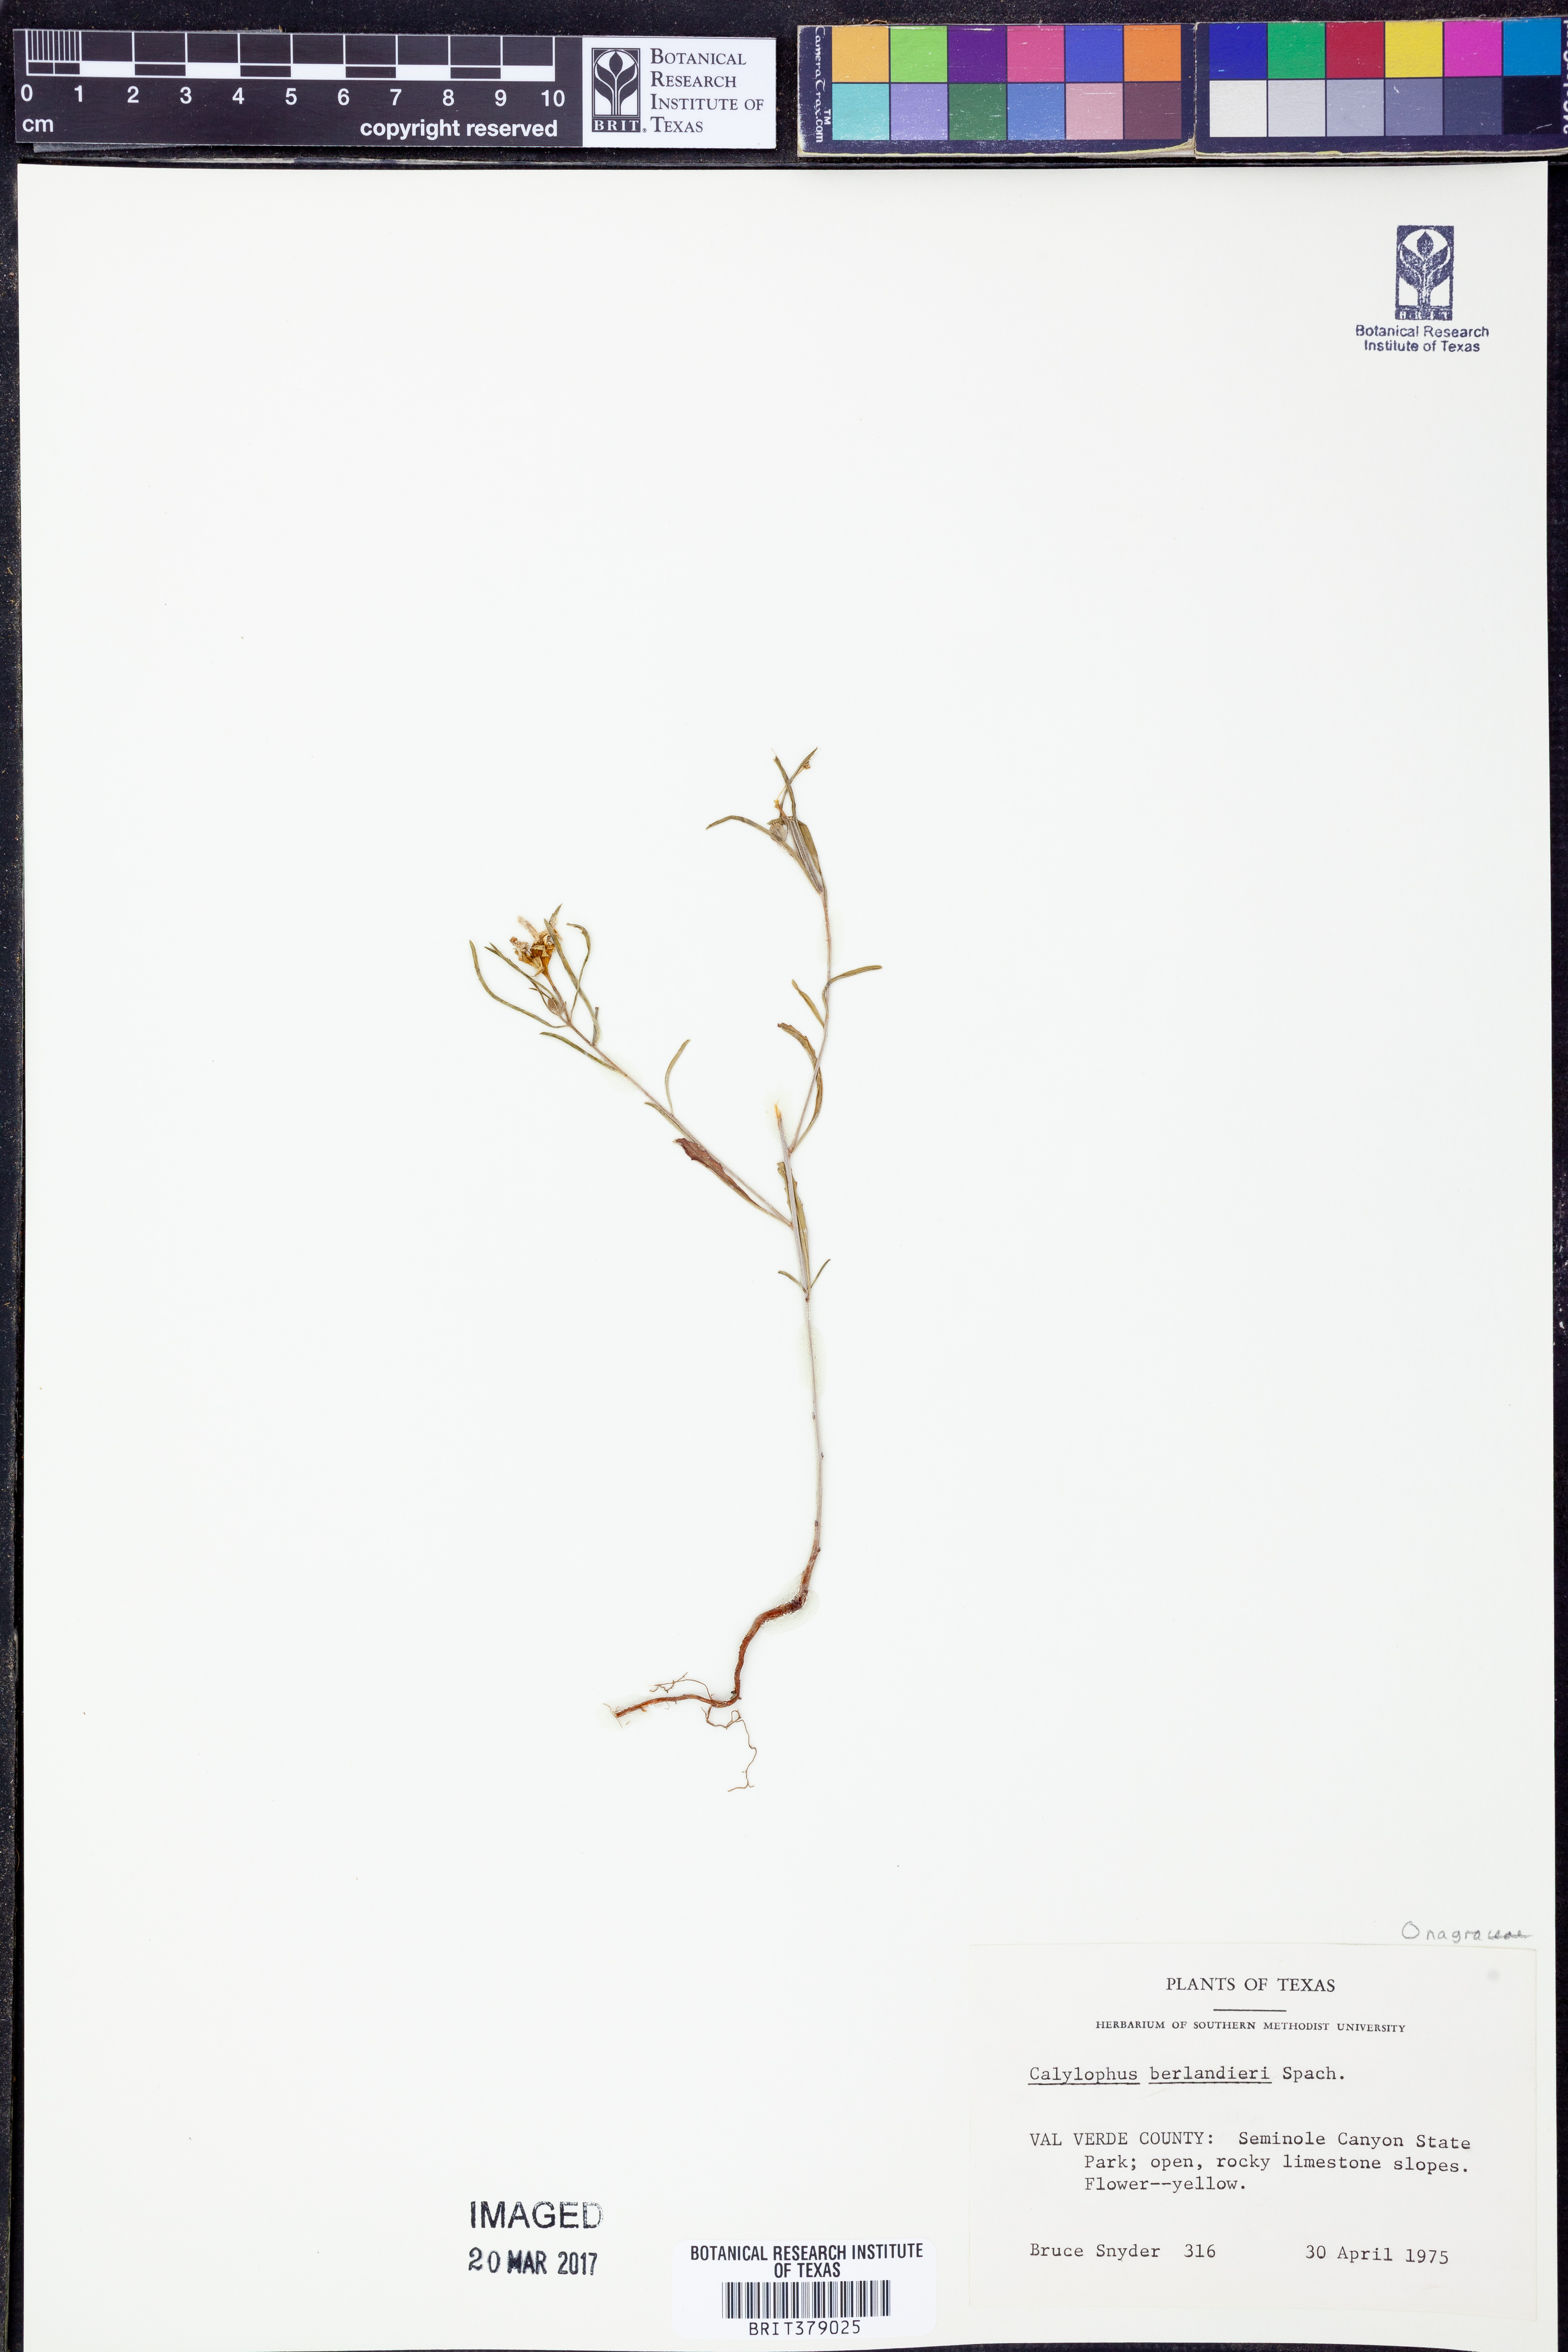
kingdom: Plantae
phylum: Tracheophyta
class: Magnoliopsida
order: Myrtales
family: Onagraceae
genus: Oenothera
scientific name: Oenothera capillifolia
